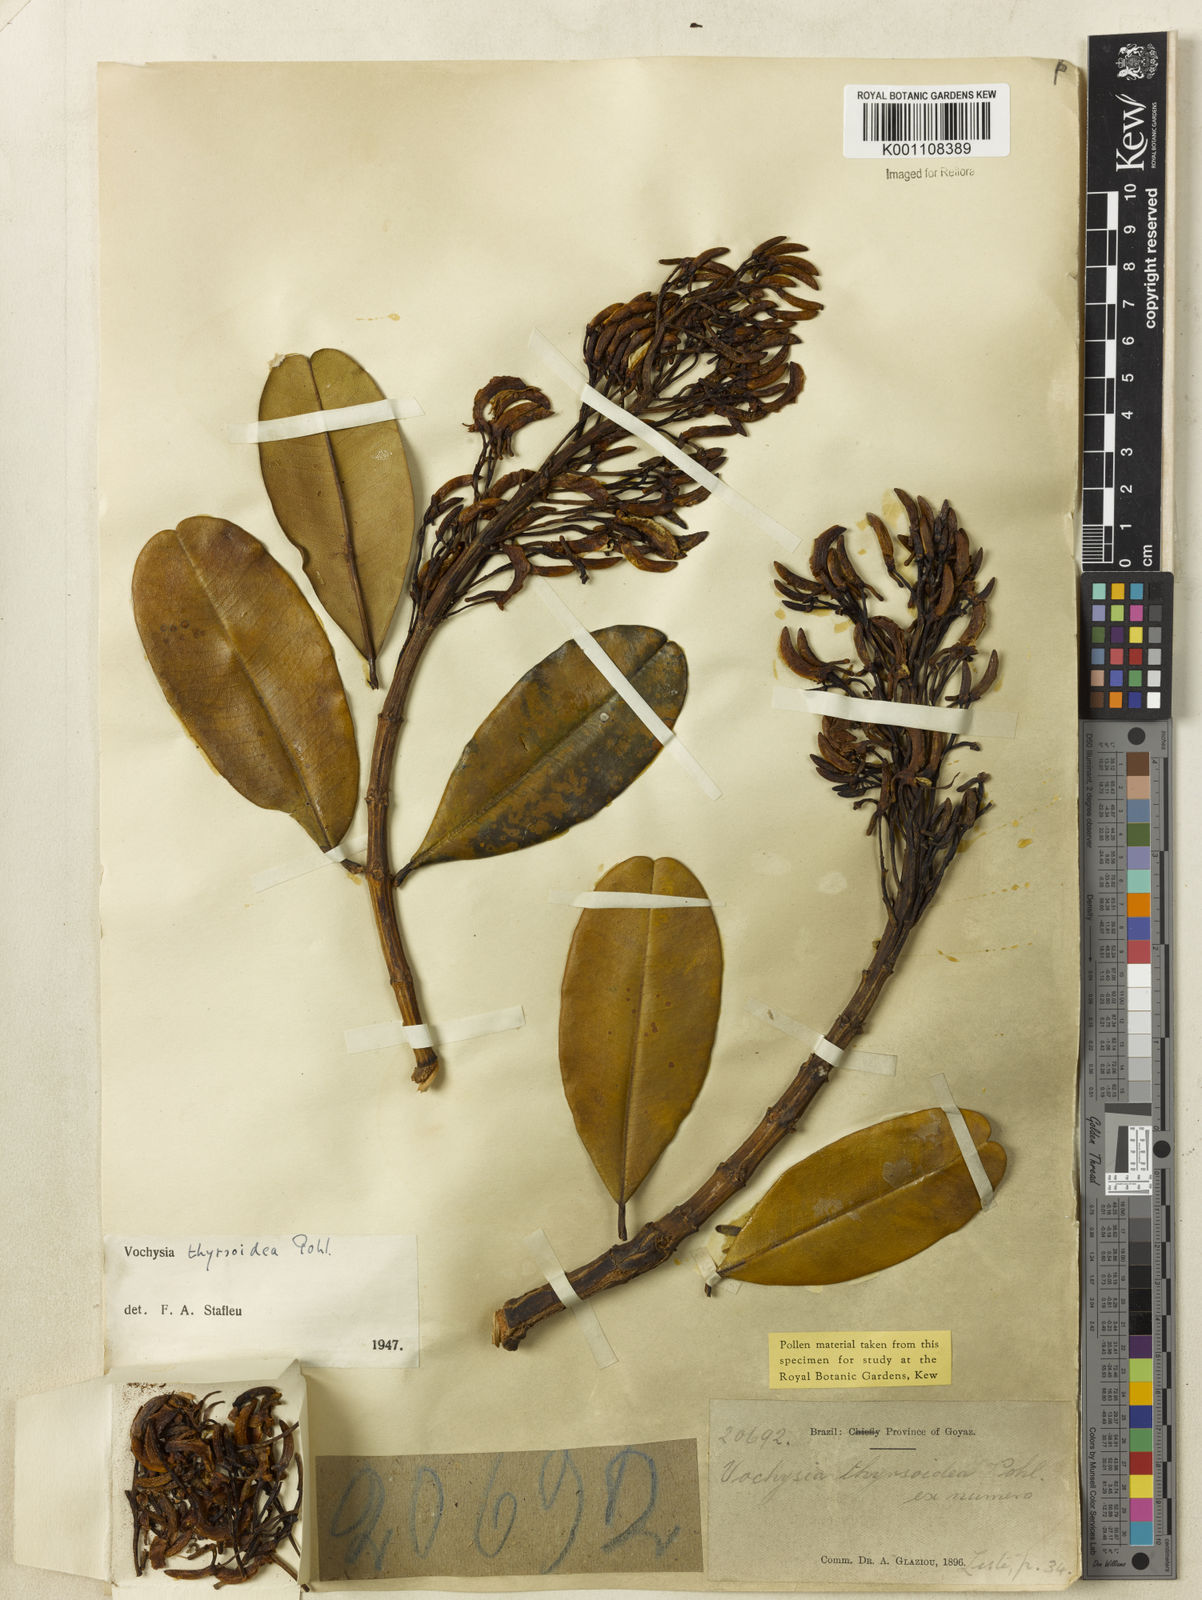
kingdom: Plantae
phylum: Tracheophyta
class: Magnoliopsida
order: Myrtales
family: Vochysiaceae
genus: Vochysia
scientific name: Vochysia thyrsoidea
